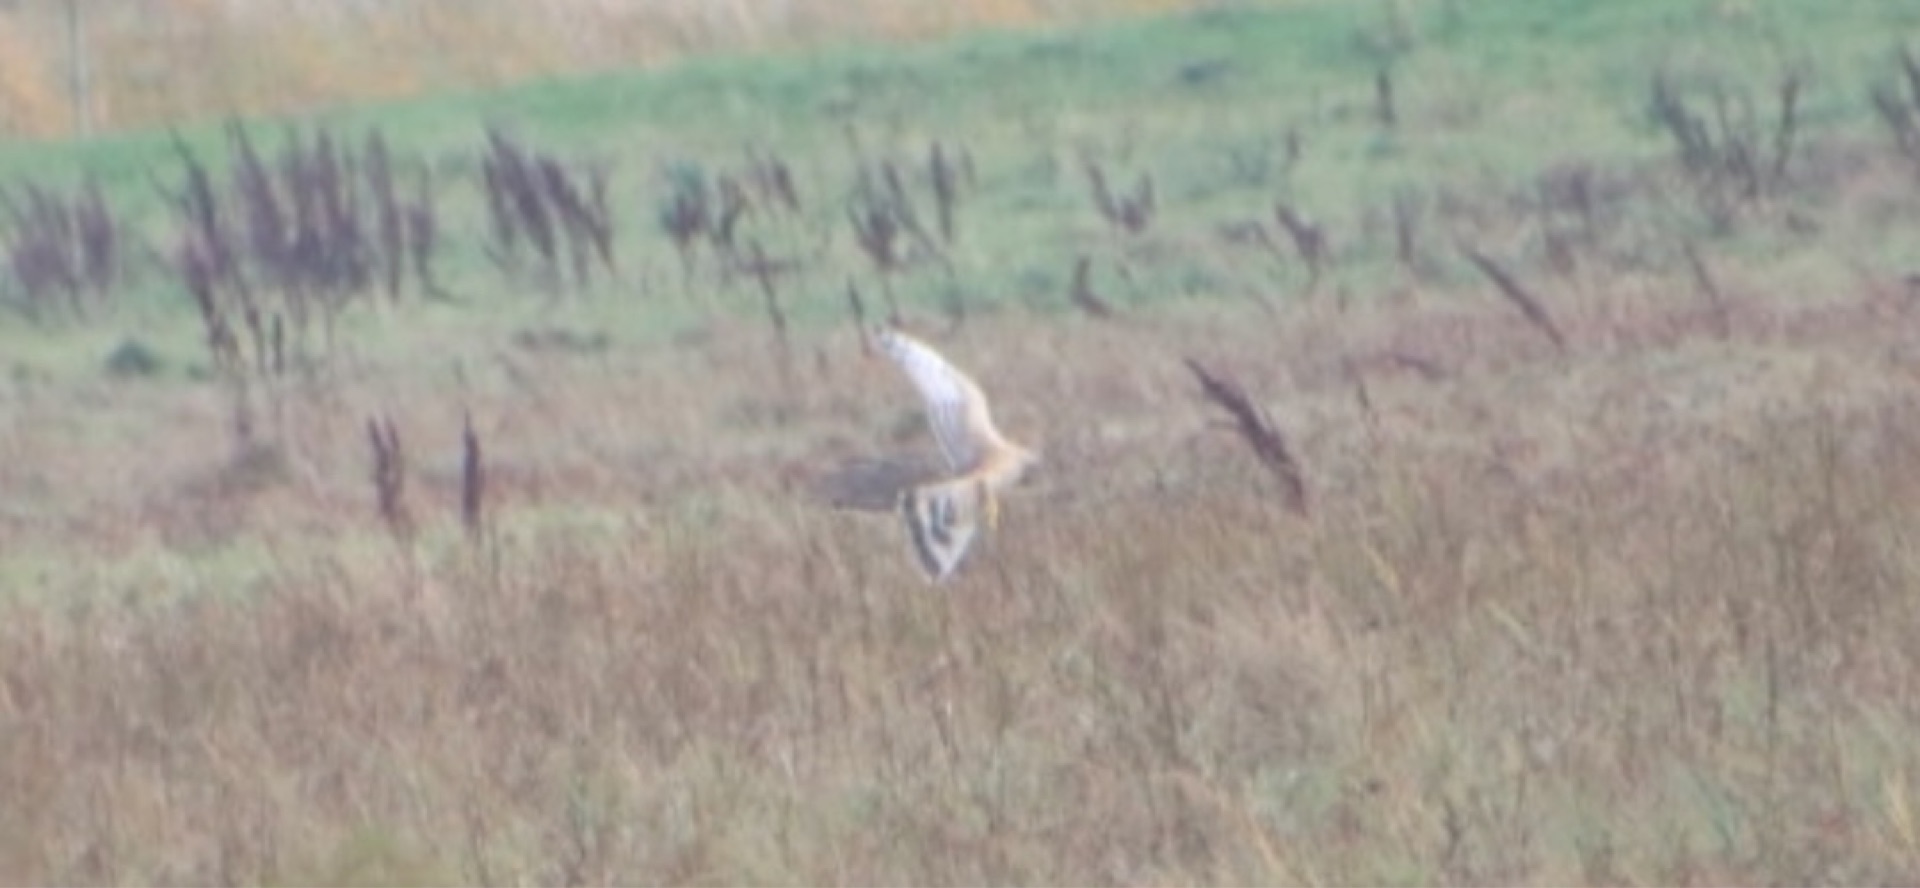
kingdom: Animalia
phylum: Chordata
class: Aves
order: Accipitriformes
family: Accipitridae
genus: Circus
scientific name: Circus cyaneus
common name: Blå kærhøg
